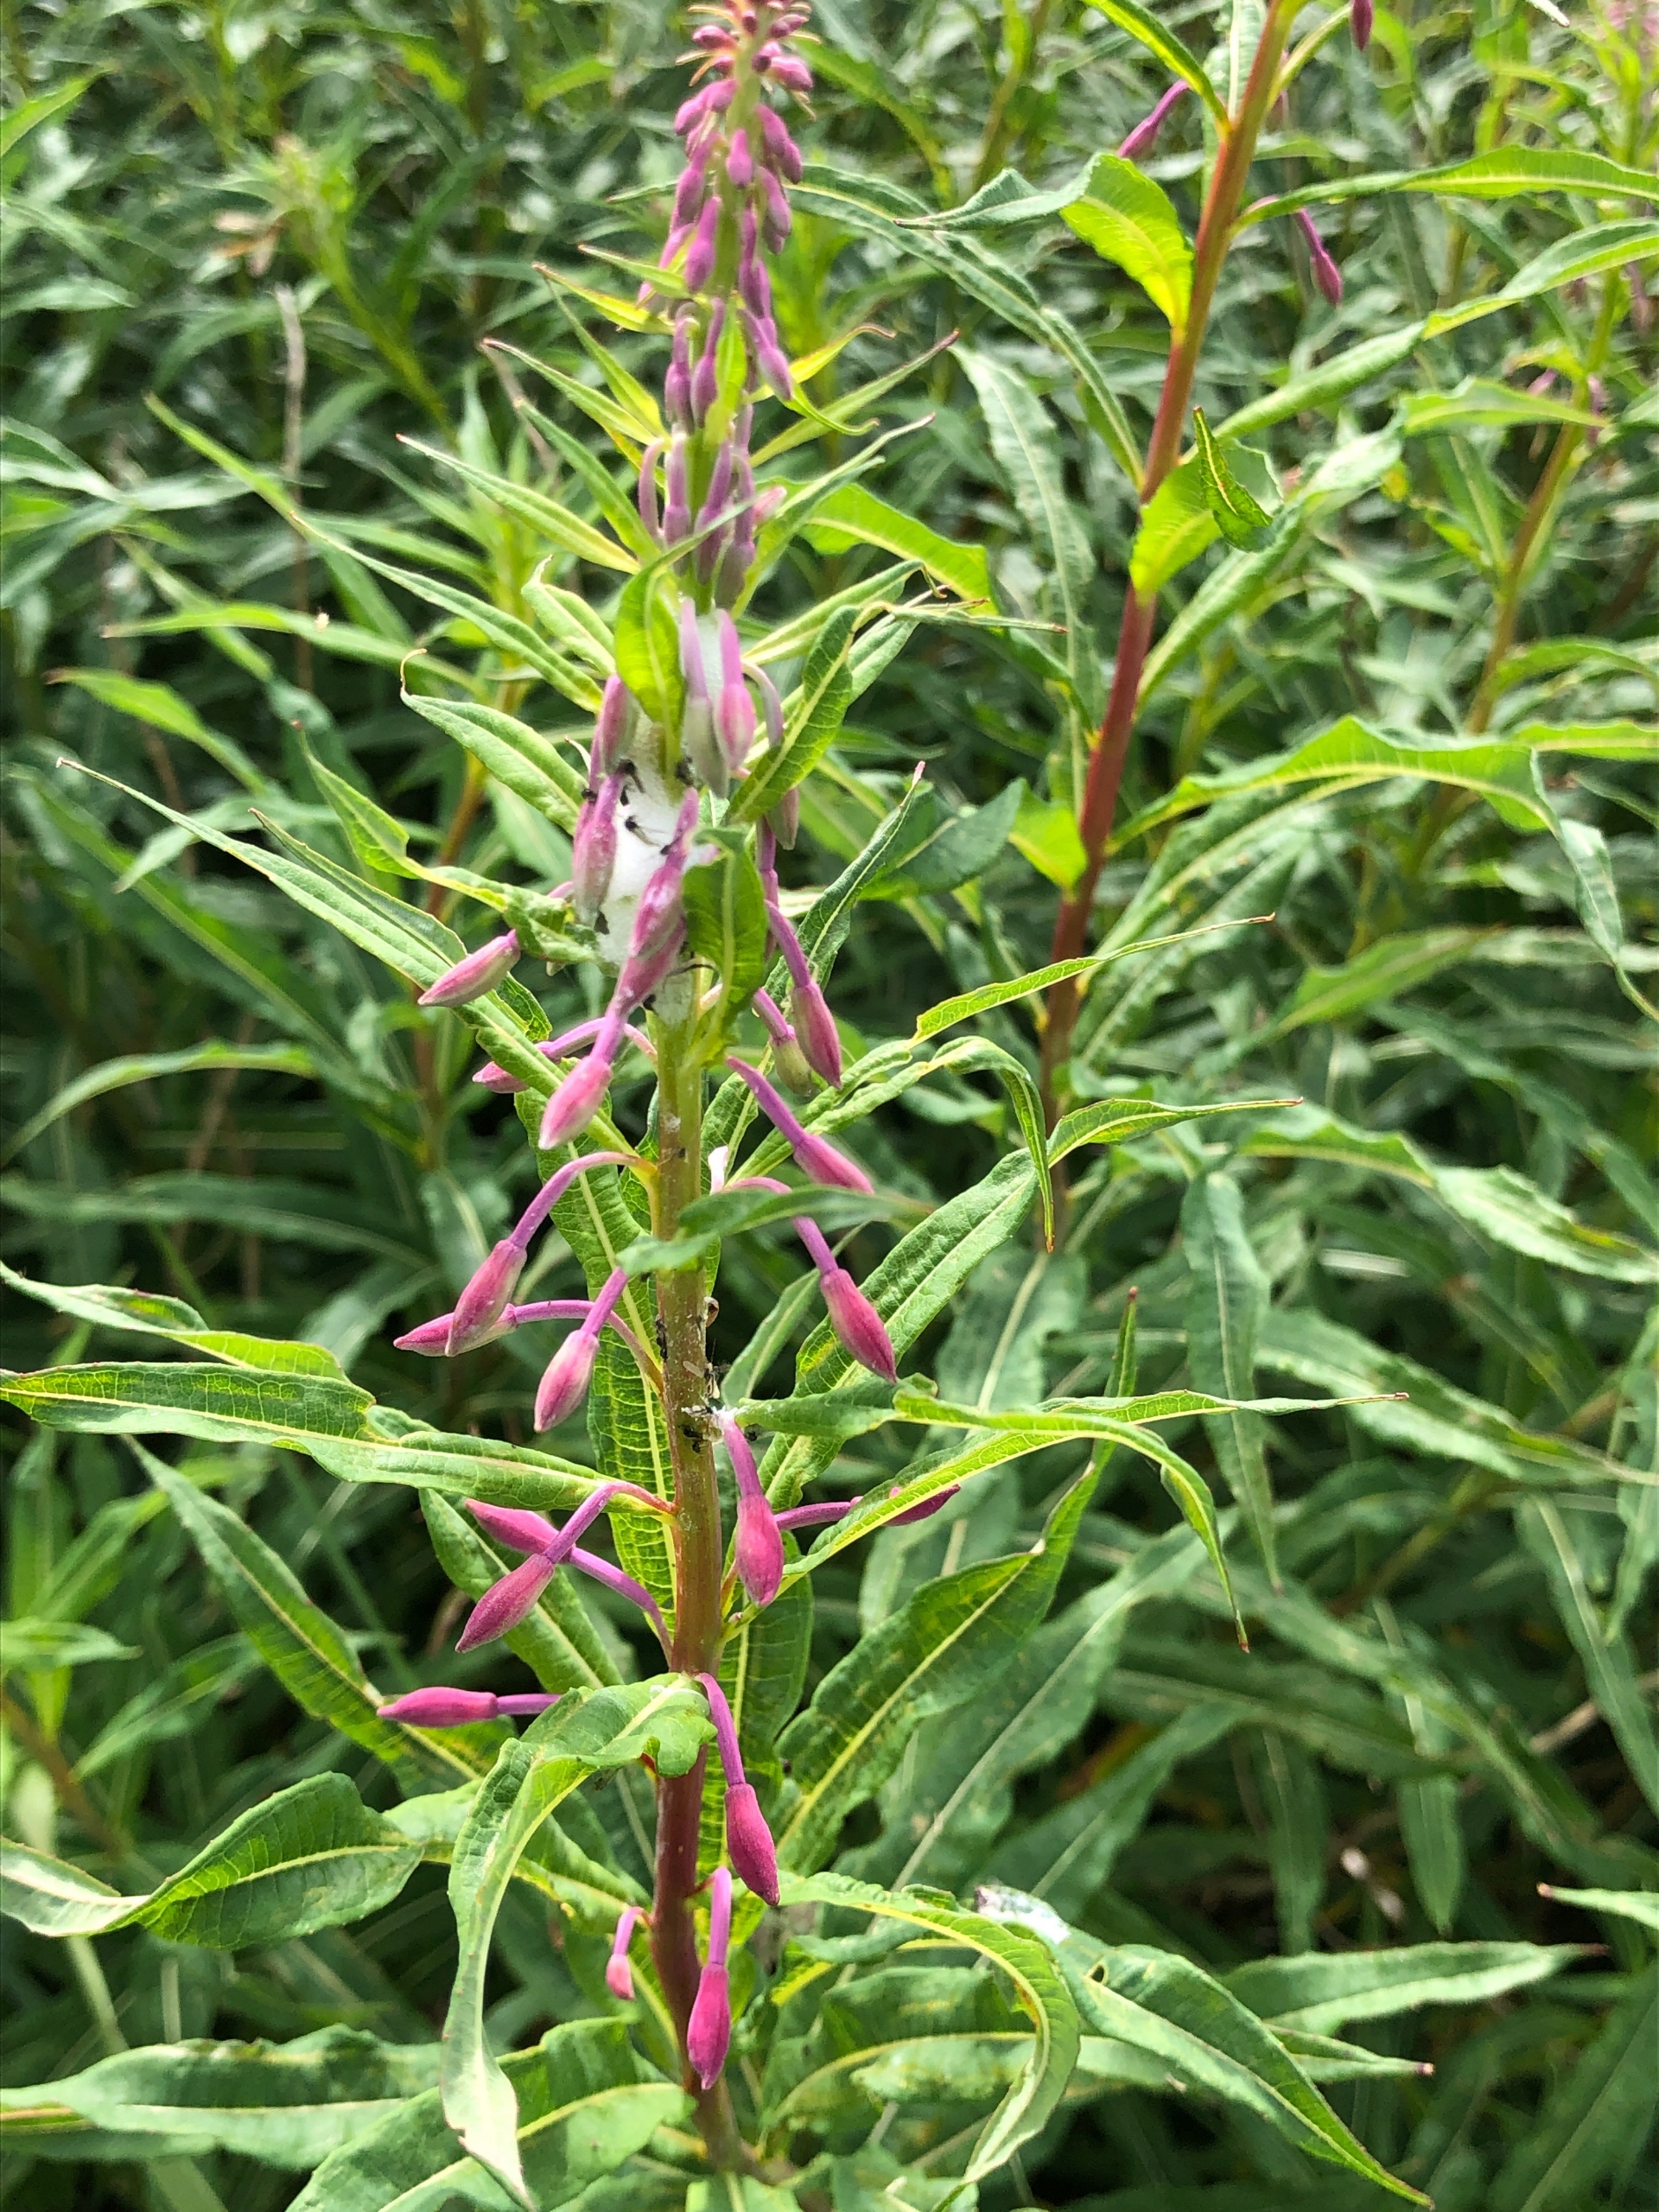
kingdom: Plantae
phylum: Tracheophyta
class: Magnoliopsida
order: Myrtales
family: Onagraceae
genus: Chamaenerion
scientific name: Chamaenerion angustifolium
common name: Gederams
